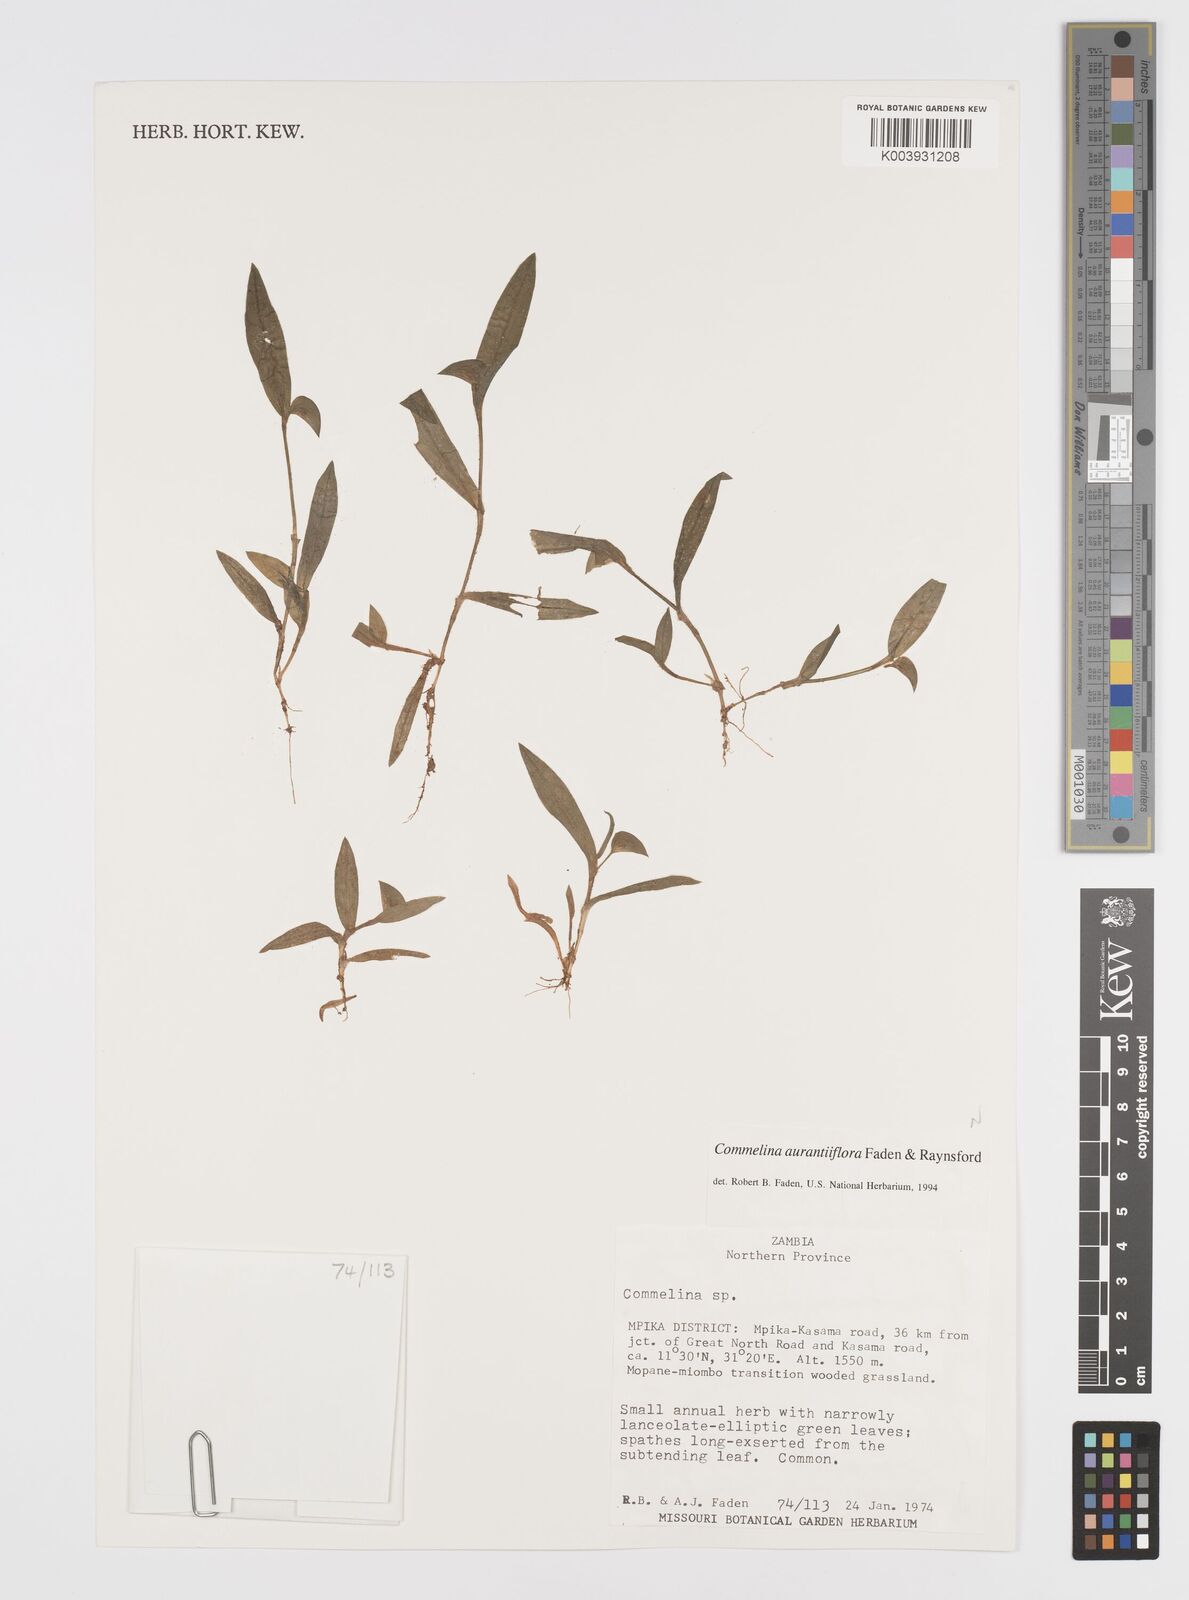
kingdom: Plantae
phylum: Tracheophyta
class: Liliopsida
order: Commelinales
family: Commelinaceae
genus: Commelina
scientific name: Commelina aurantiiflora
